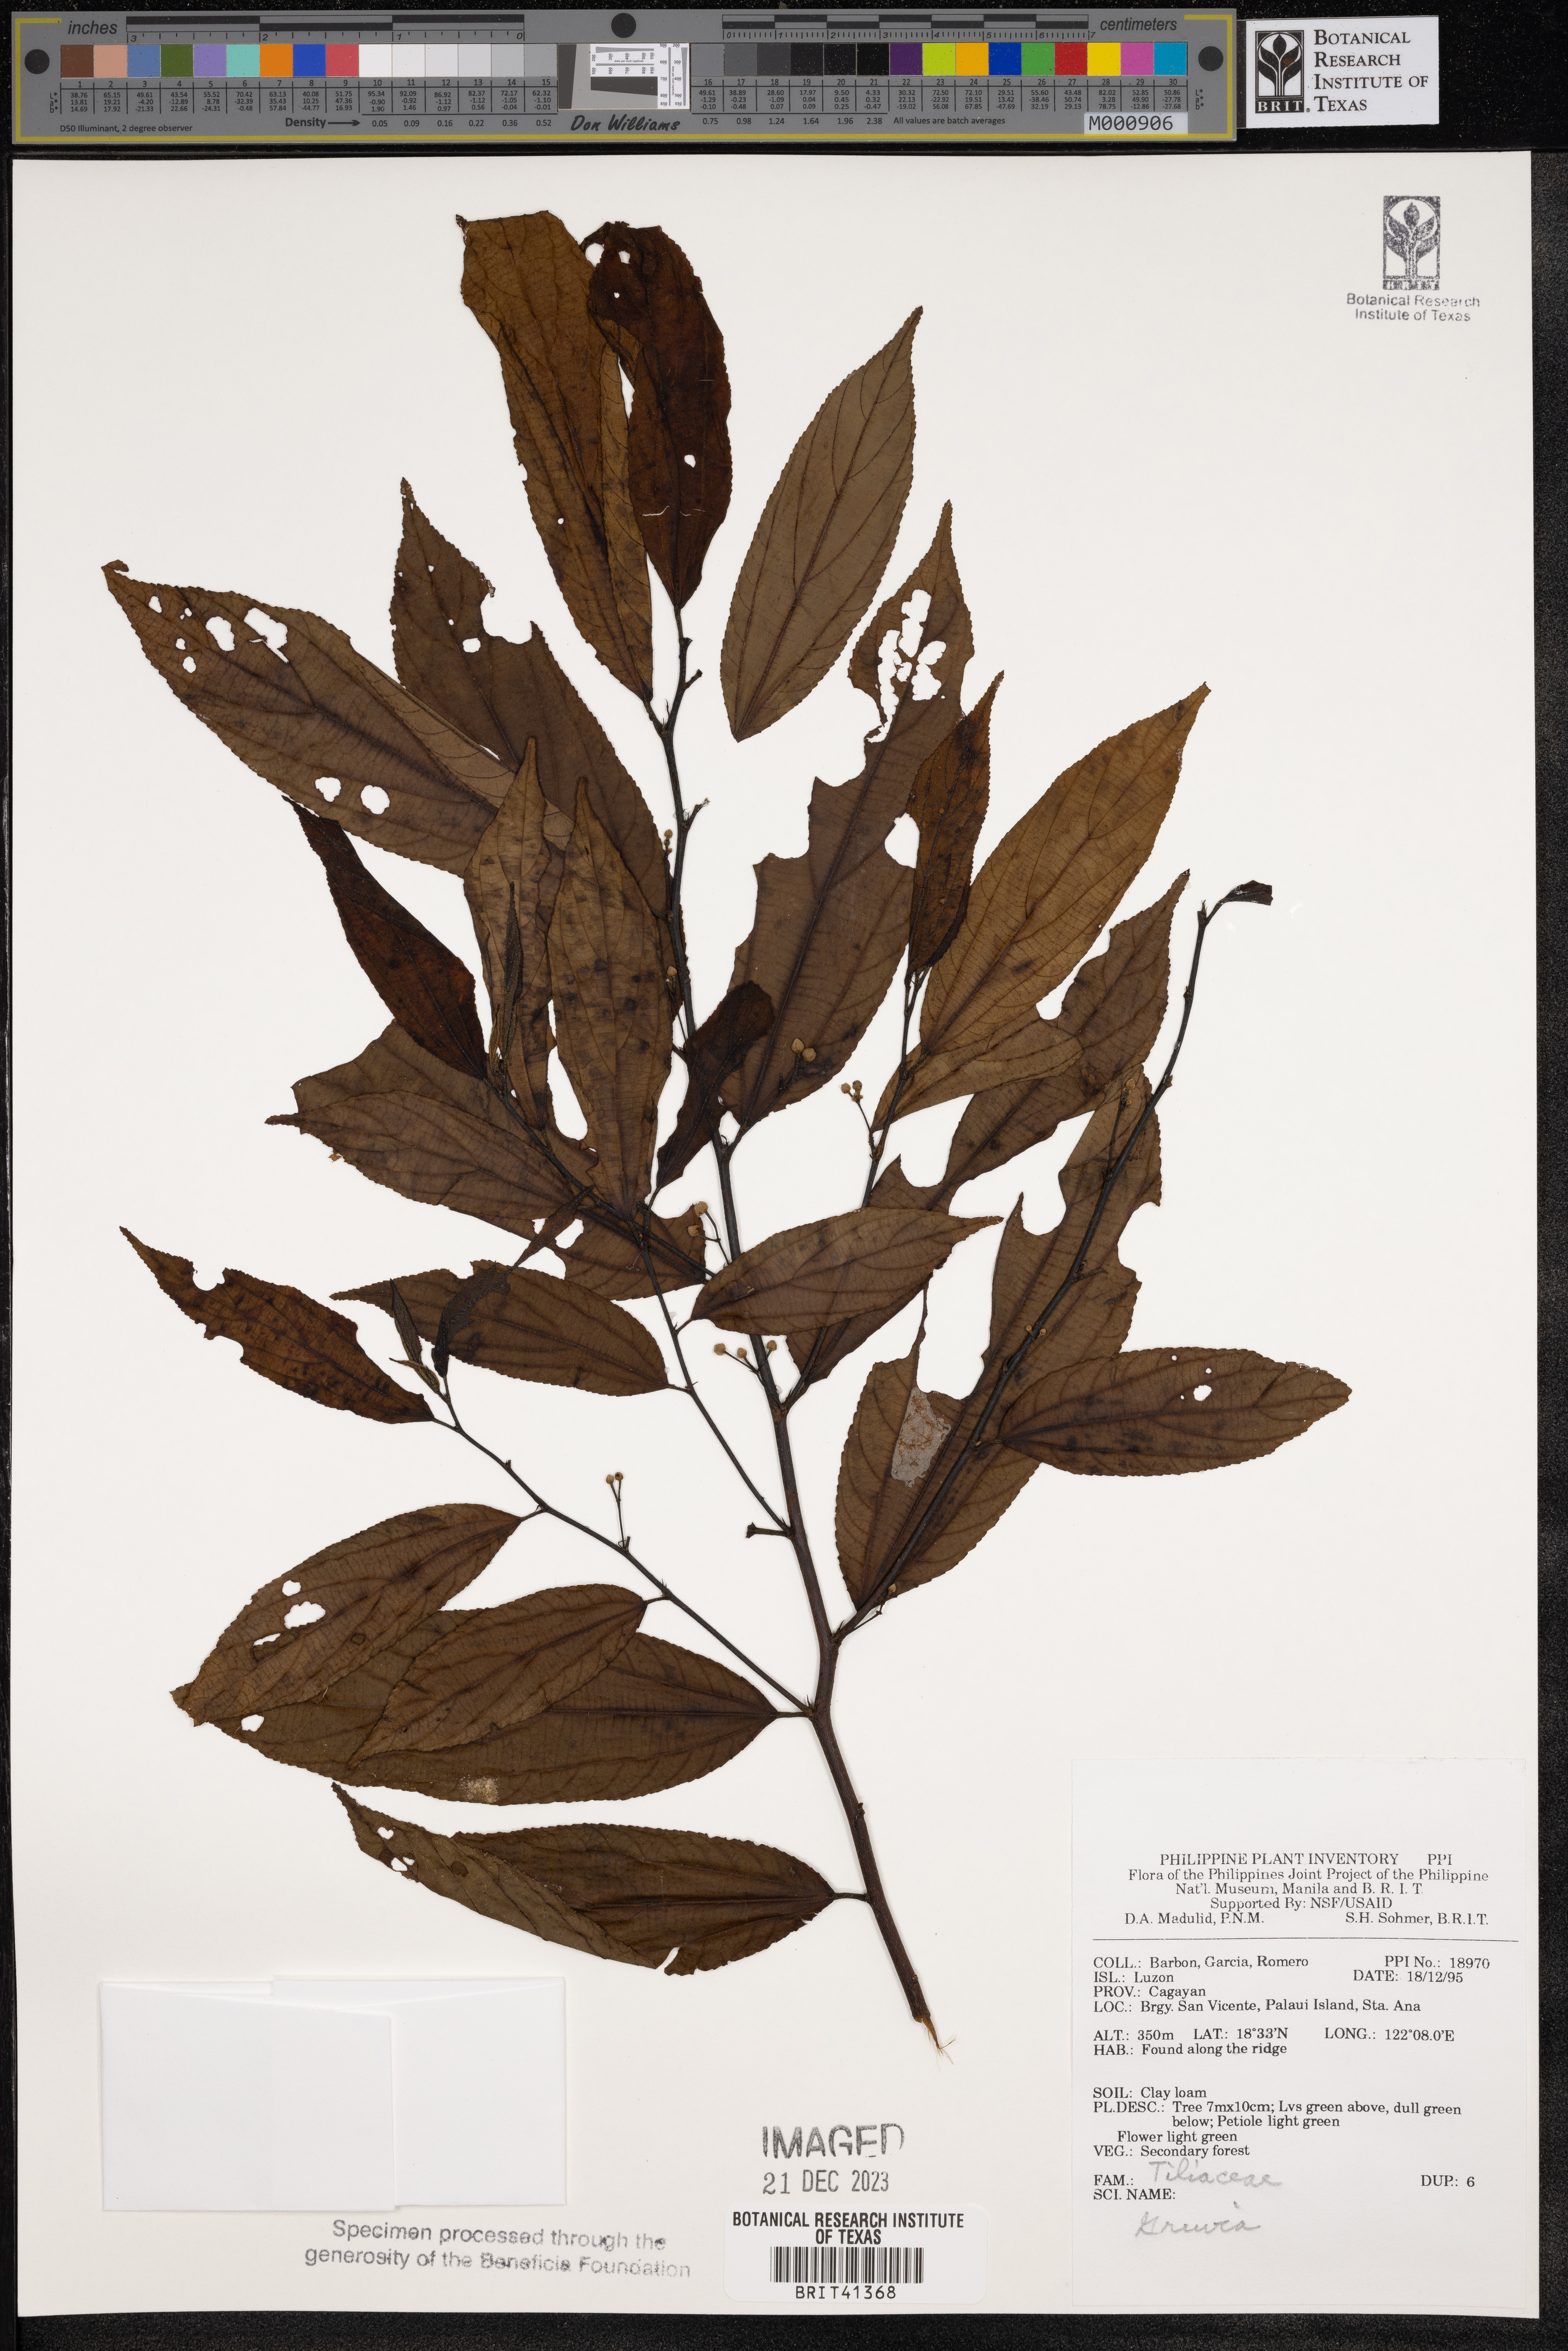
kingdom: Plantae
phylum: Tracheophyta
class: Magnoliopsida
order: Malvales
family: Malvaceae
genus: Grewia
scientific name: Grewia
